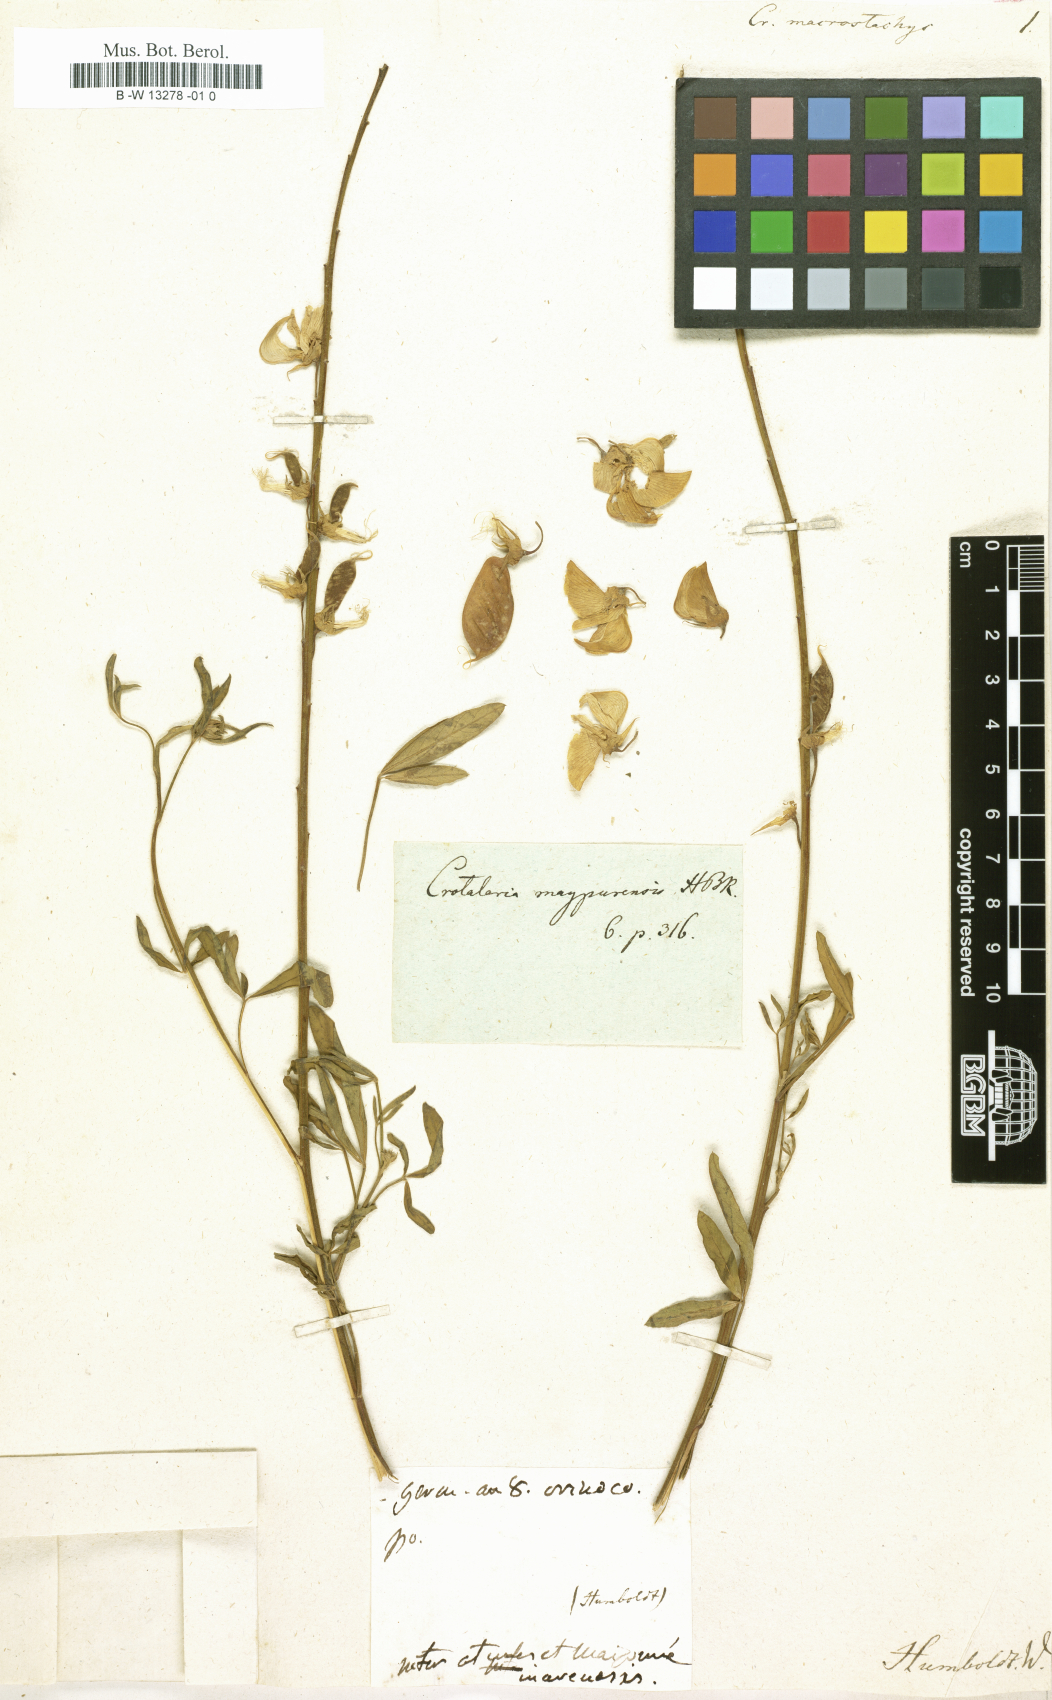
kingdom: Plantae
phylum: Tracheophyta
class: Magnoliopsida
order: Fabales
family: Fabaceae
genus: Crotalaria
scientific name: Crotalaria globifera
